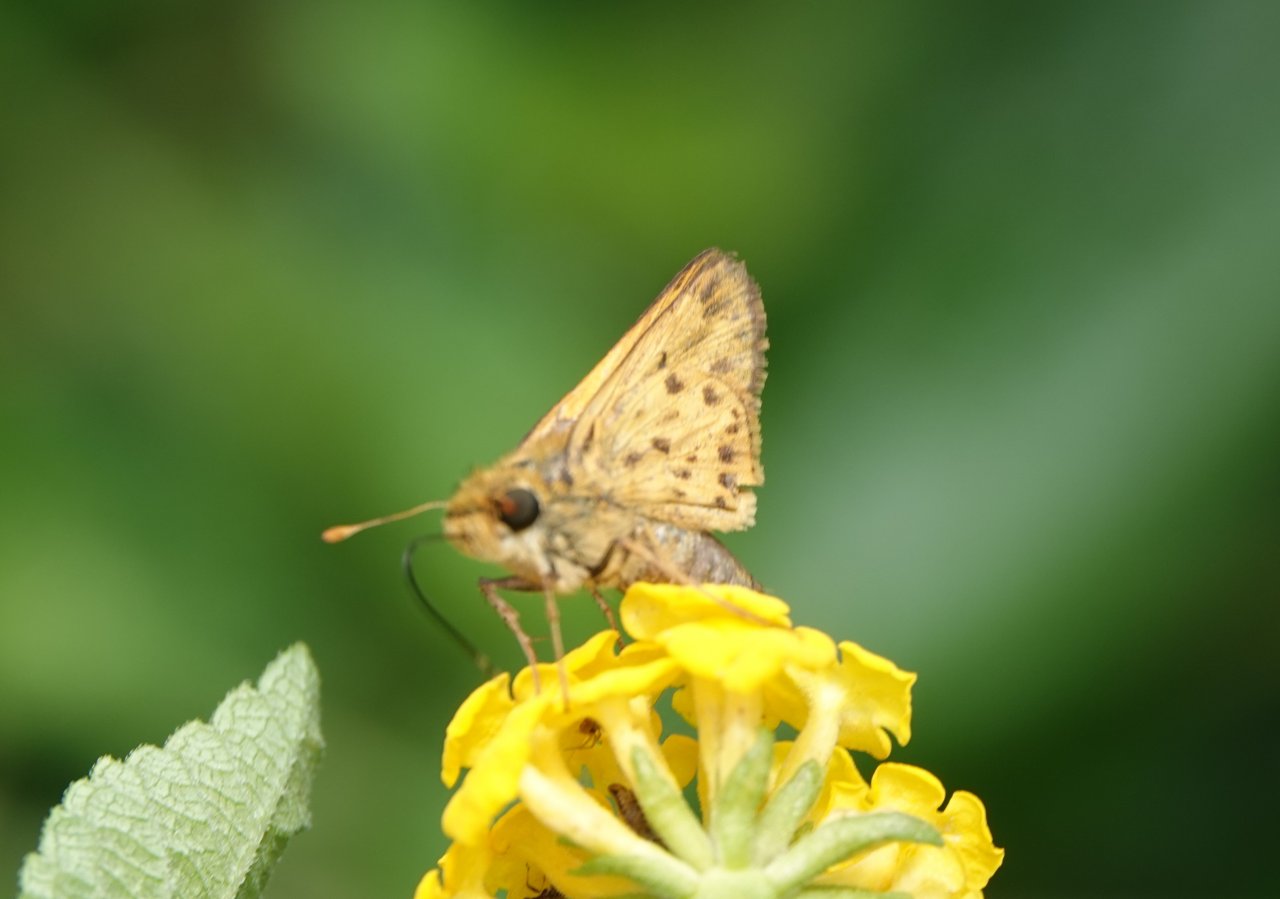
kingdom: Animalia
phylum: Arthropoda
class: Insecta
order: Lepidoptera
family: Hesperiidae
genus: Hylephila
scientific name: Hylephila phyleus
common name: Fiery Skipper
